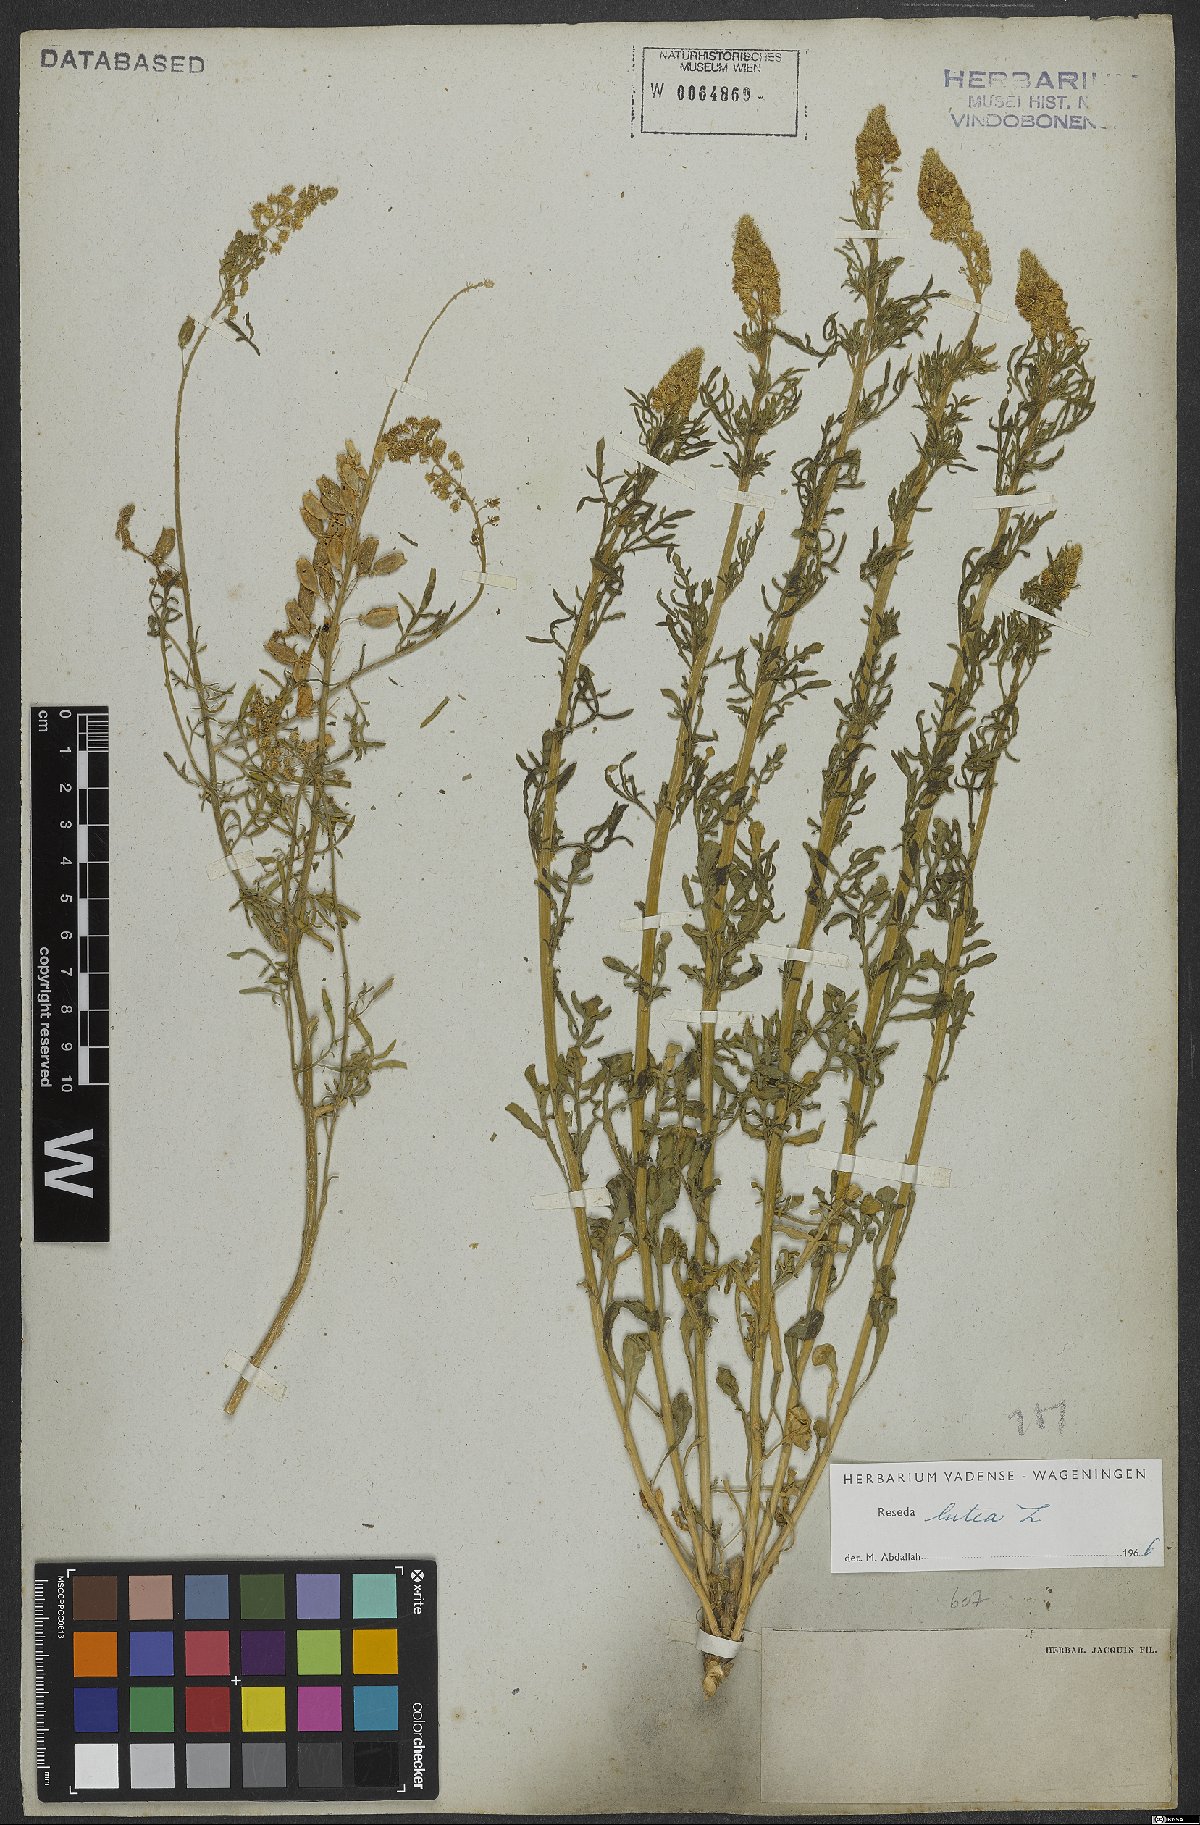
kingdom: Plantae
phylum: Tracheophyta
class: Magnoliopsida
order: Brassicales
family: Resedaceae
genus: Reseda
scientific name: Reseda lutea
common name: Wild mignonette
